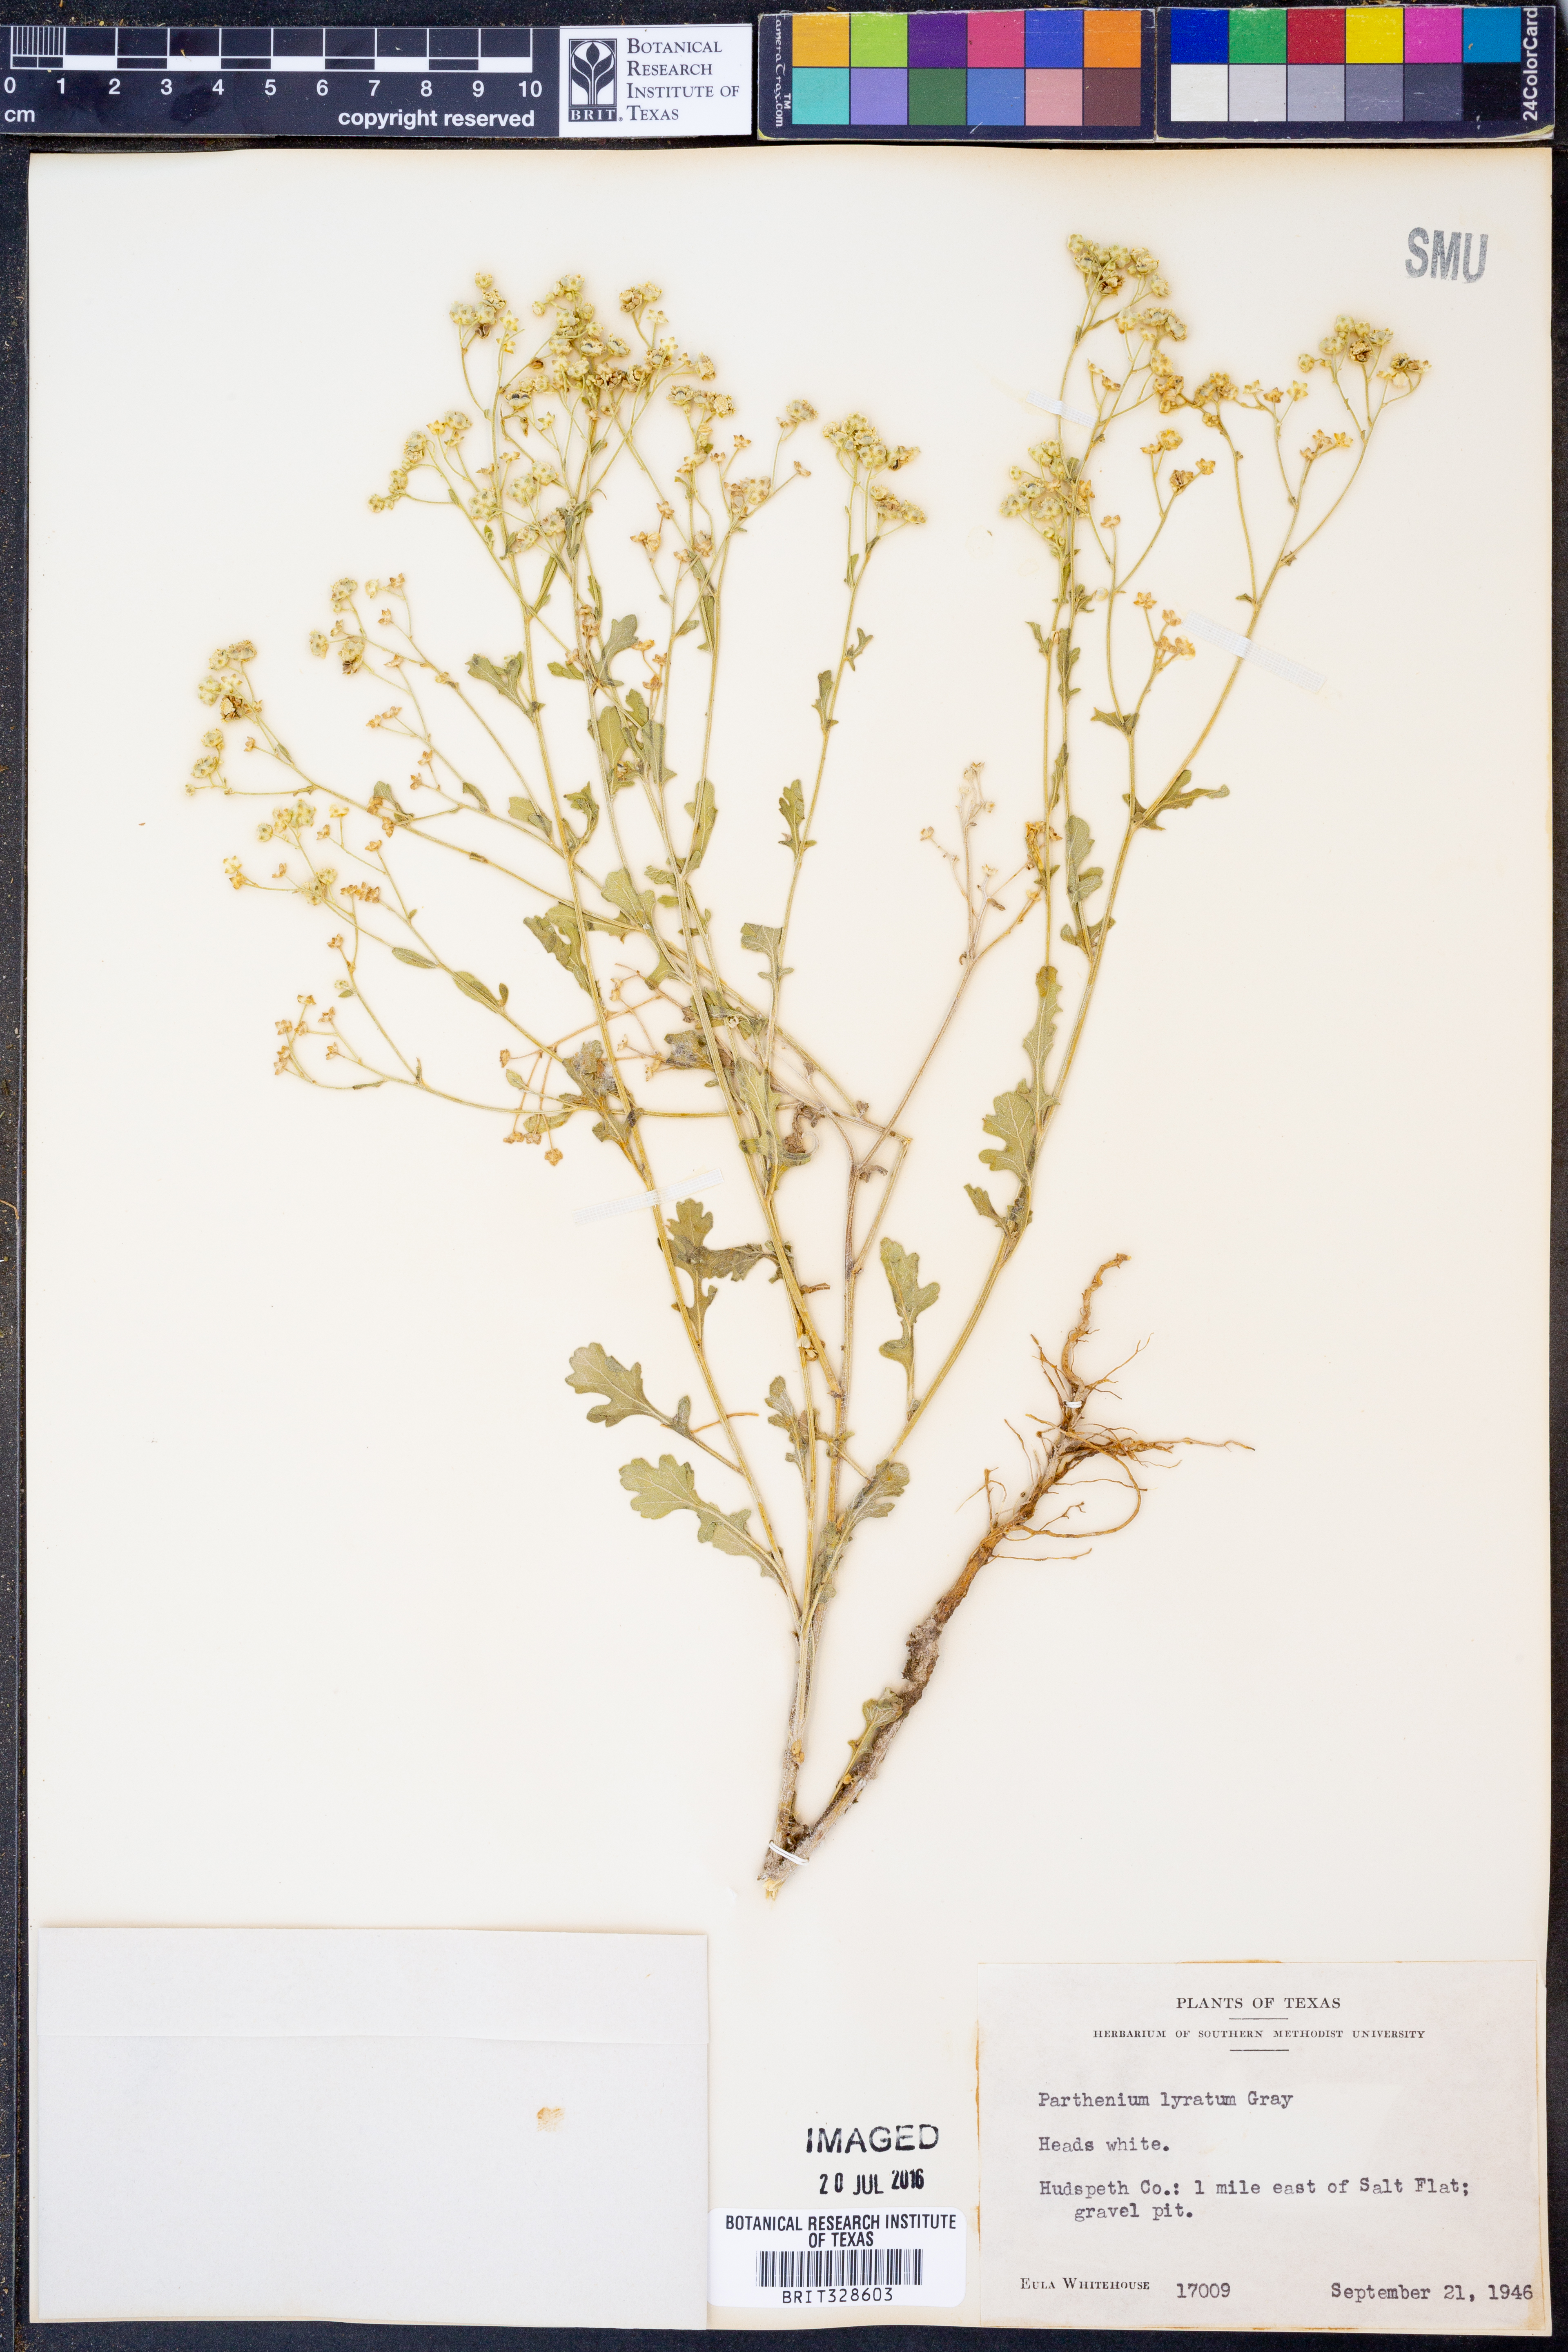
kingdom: Plantae
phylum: Tracheophyta
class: Magnoliopsida
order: Asterales
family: Asteraceae
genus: Parthenium
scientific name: Parthenium confertum
